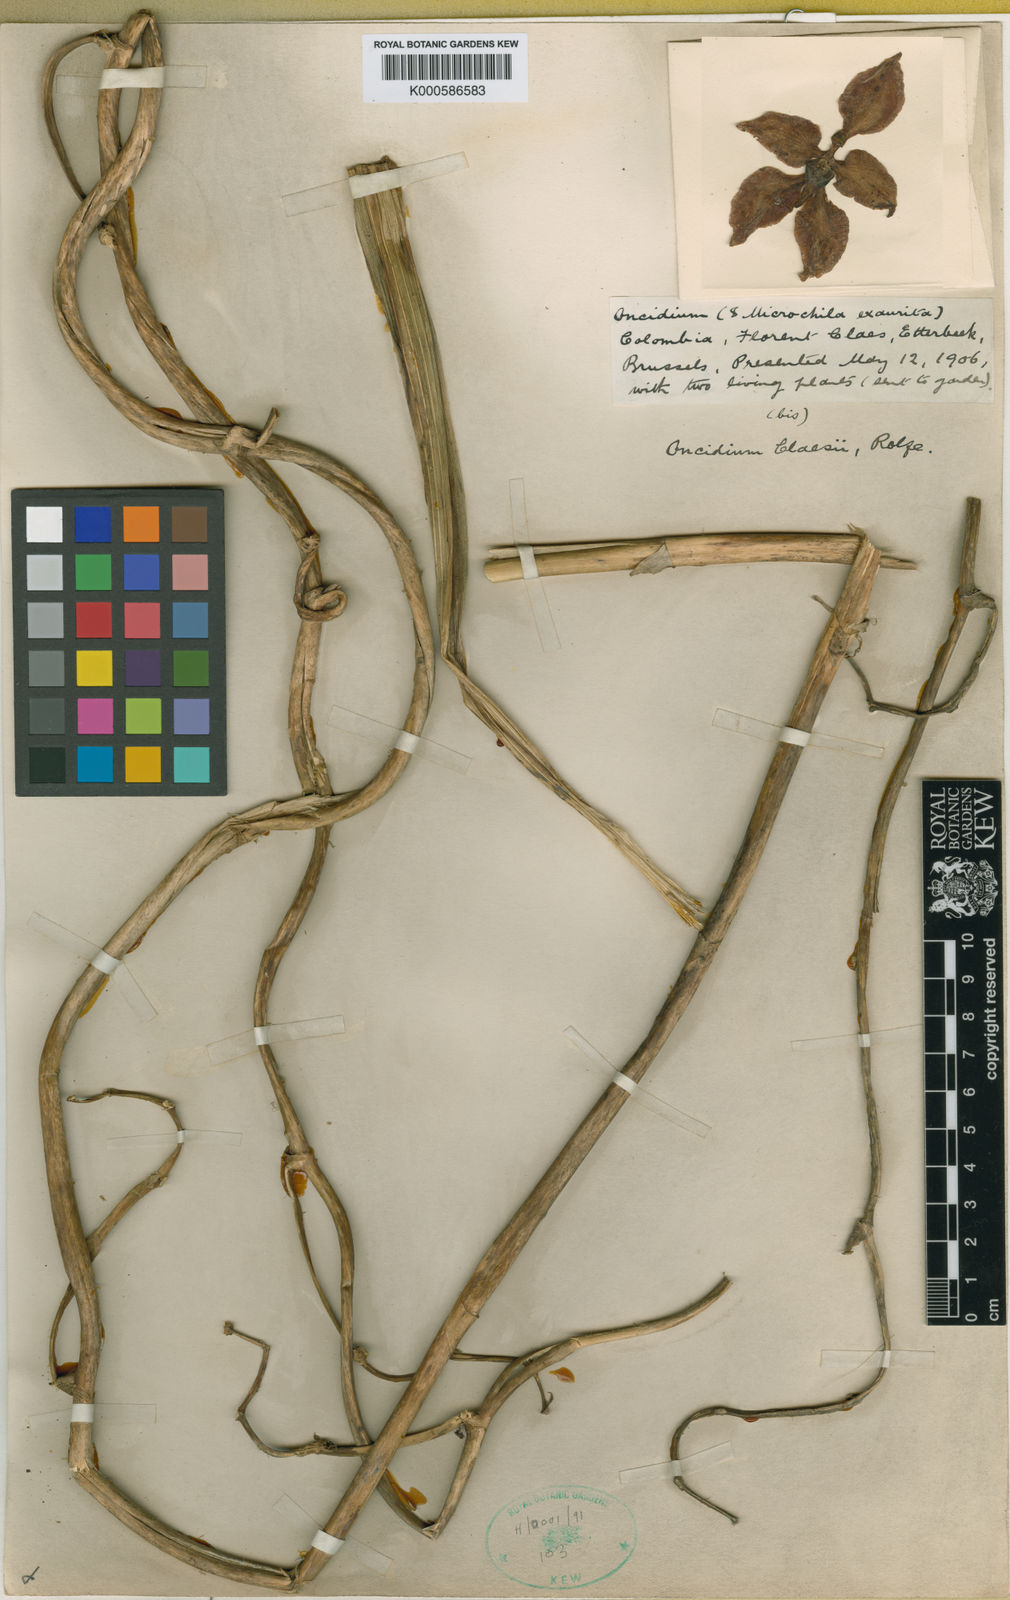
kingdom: Plantae
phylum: Tracheophyta
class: Liliopsida
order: Asparagales
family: Orchidaceae
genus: Cyrtochilum
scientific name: Cyrtochilum orgyale
